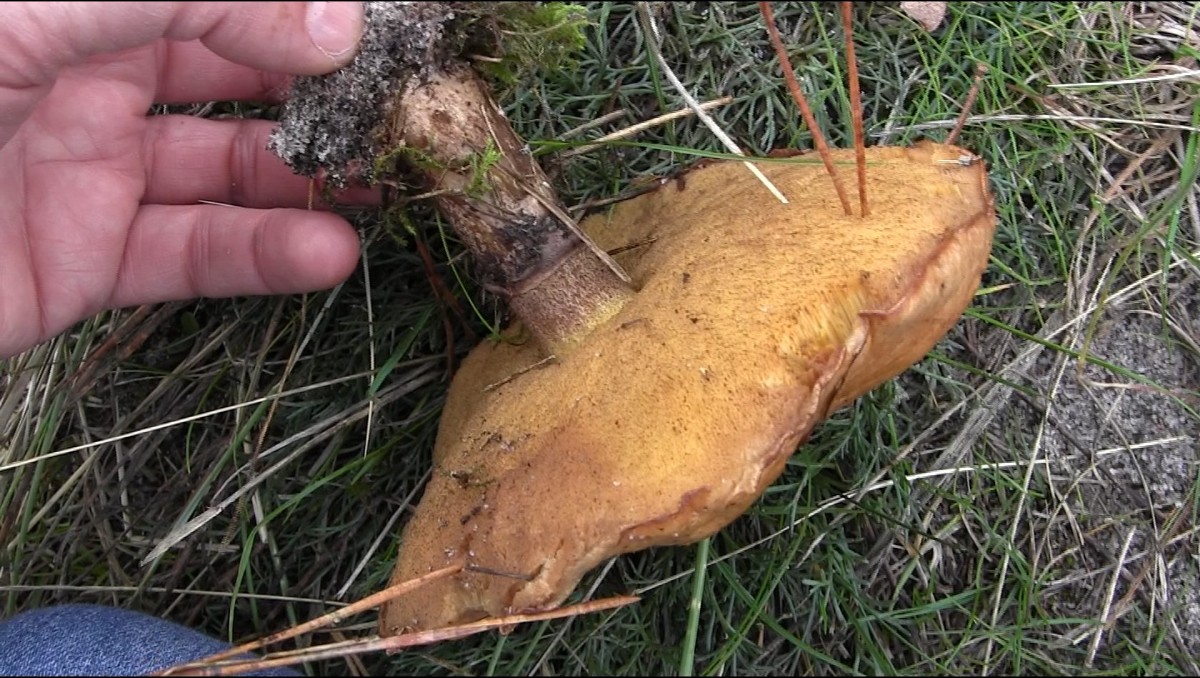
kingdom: Fungi
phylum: Basidiomycota
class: Agaricomycetes
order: Boletales
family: Suillaceae
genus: Suillus
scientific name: Suillus luteus
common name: brungul slimrørhat
